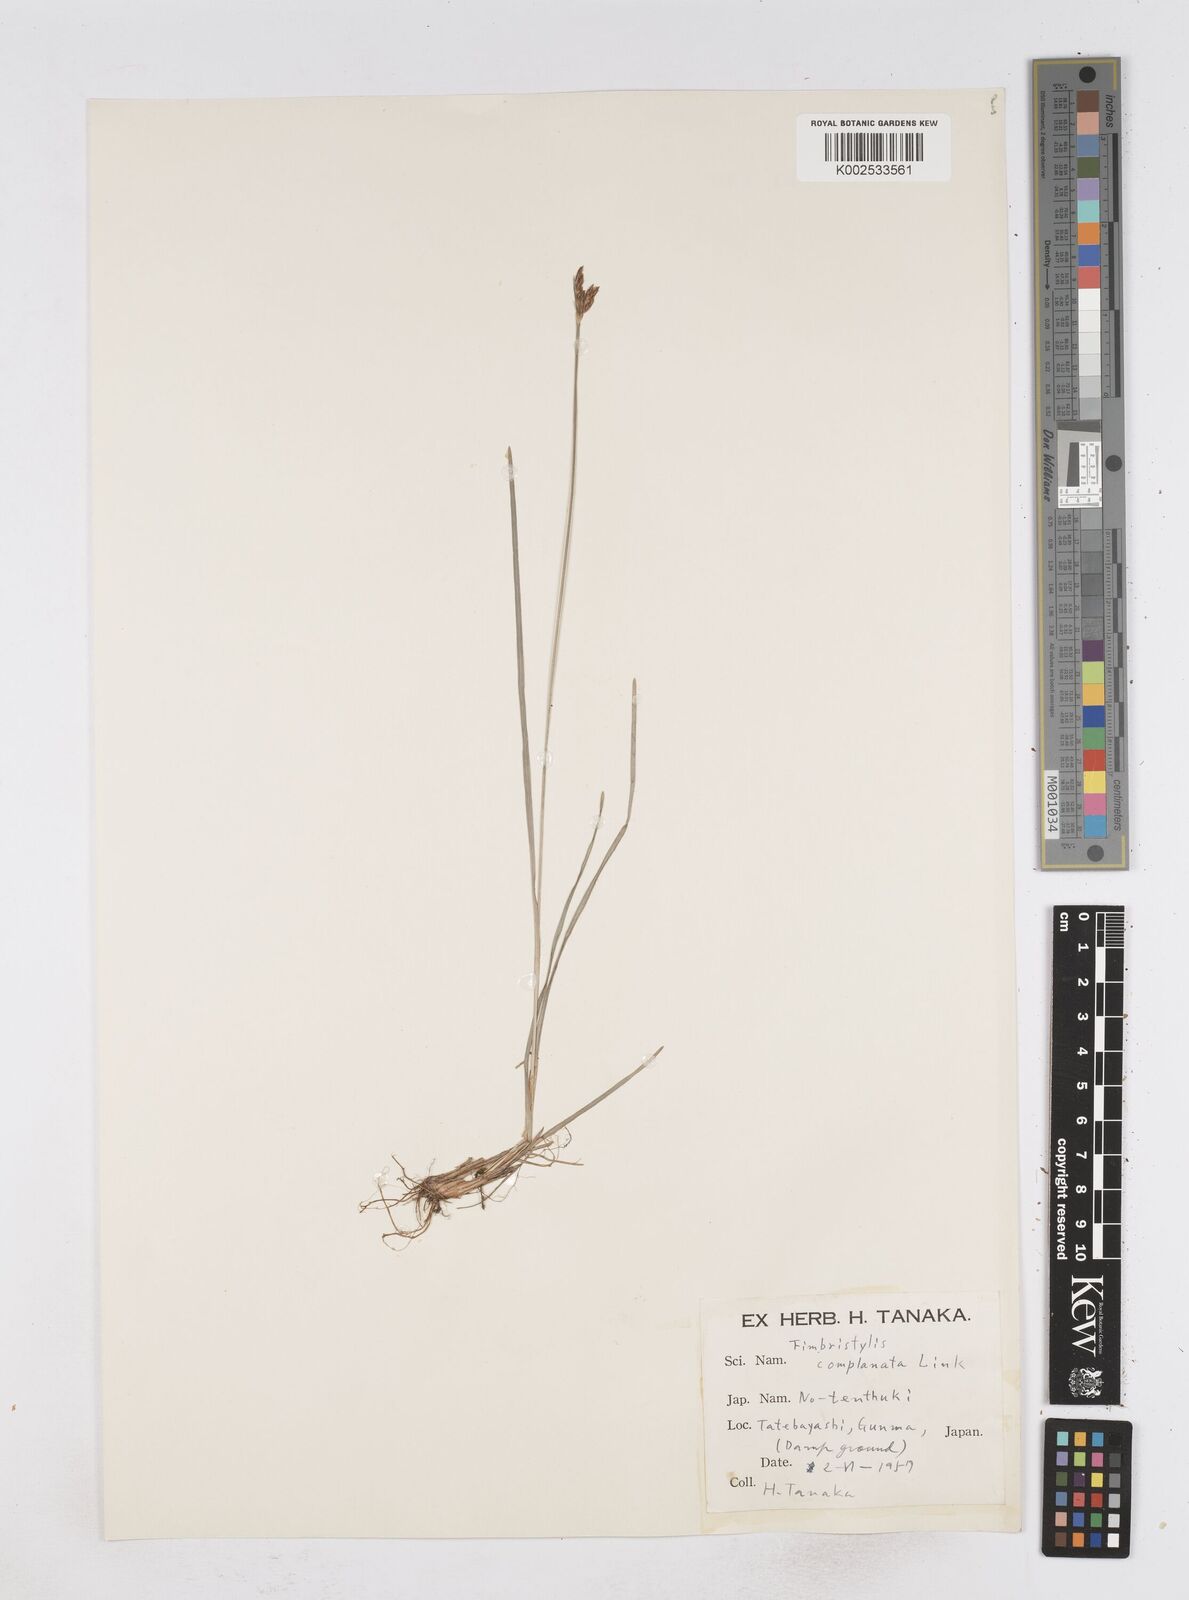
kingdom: Plantae
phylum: Tracheophyta
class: Liliopsida
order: Poales
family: Cyperaceae
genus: Fimbristylis
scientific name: Fimbristylis complanata
